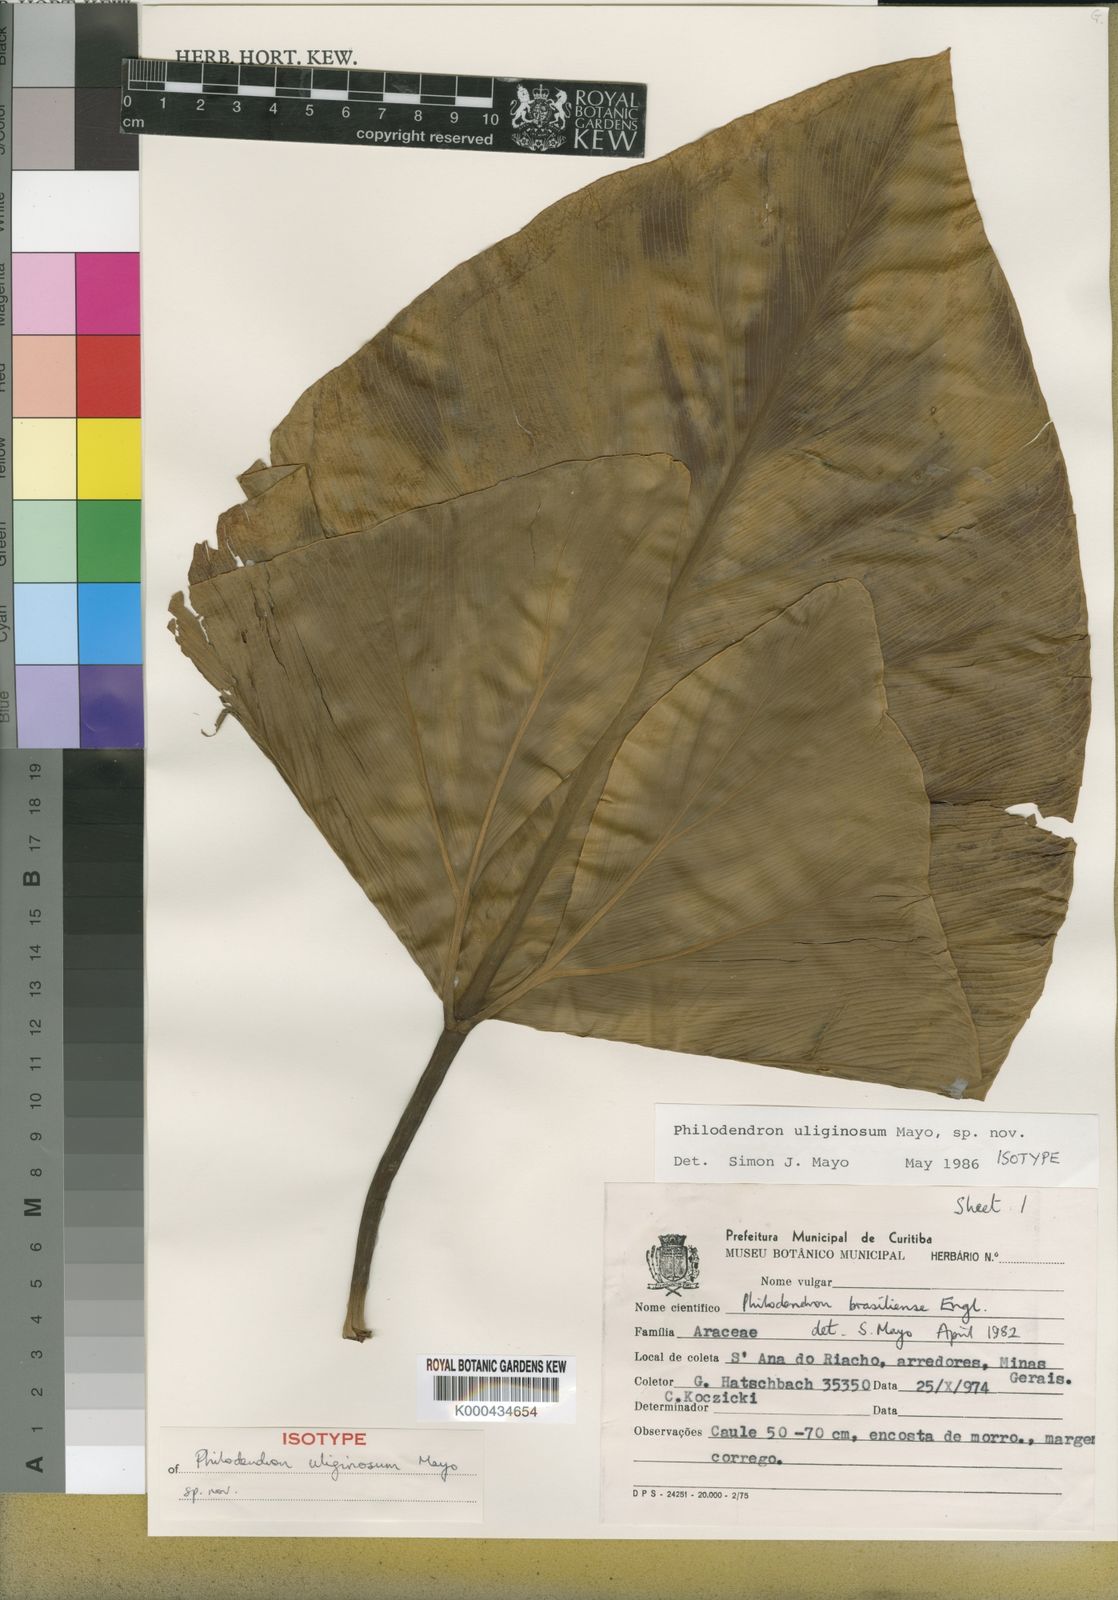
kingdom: Plantae
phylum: Tracheophyta
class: Liliopsida
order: Alismatales
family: Araceae
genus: Thaumatophyllum
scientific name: Thaumatophyllum uliginosum
